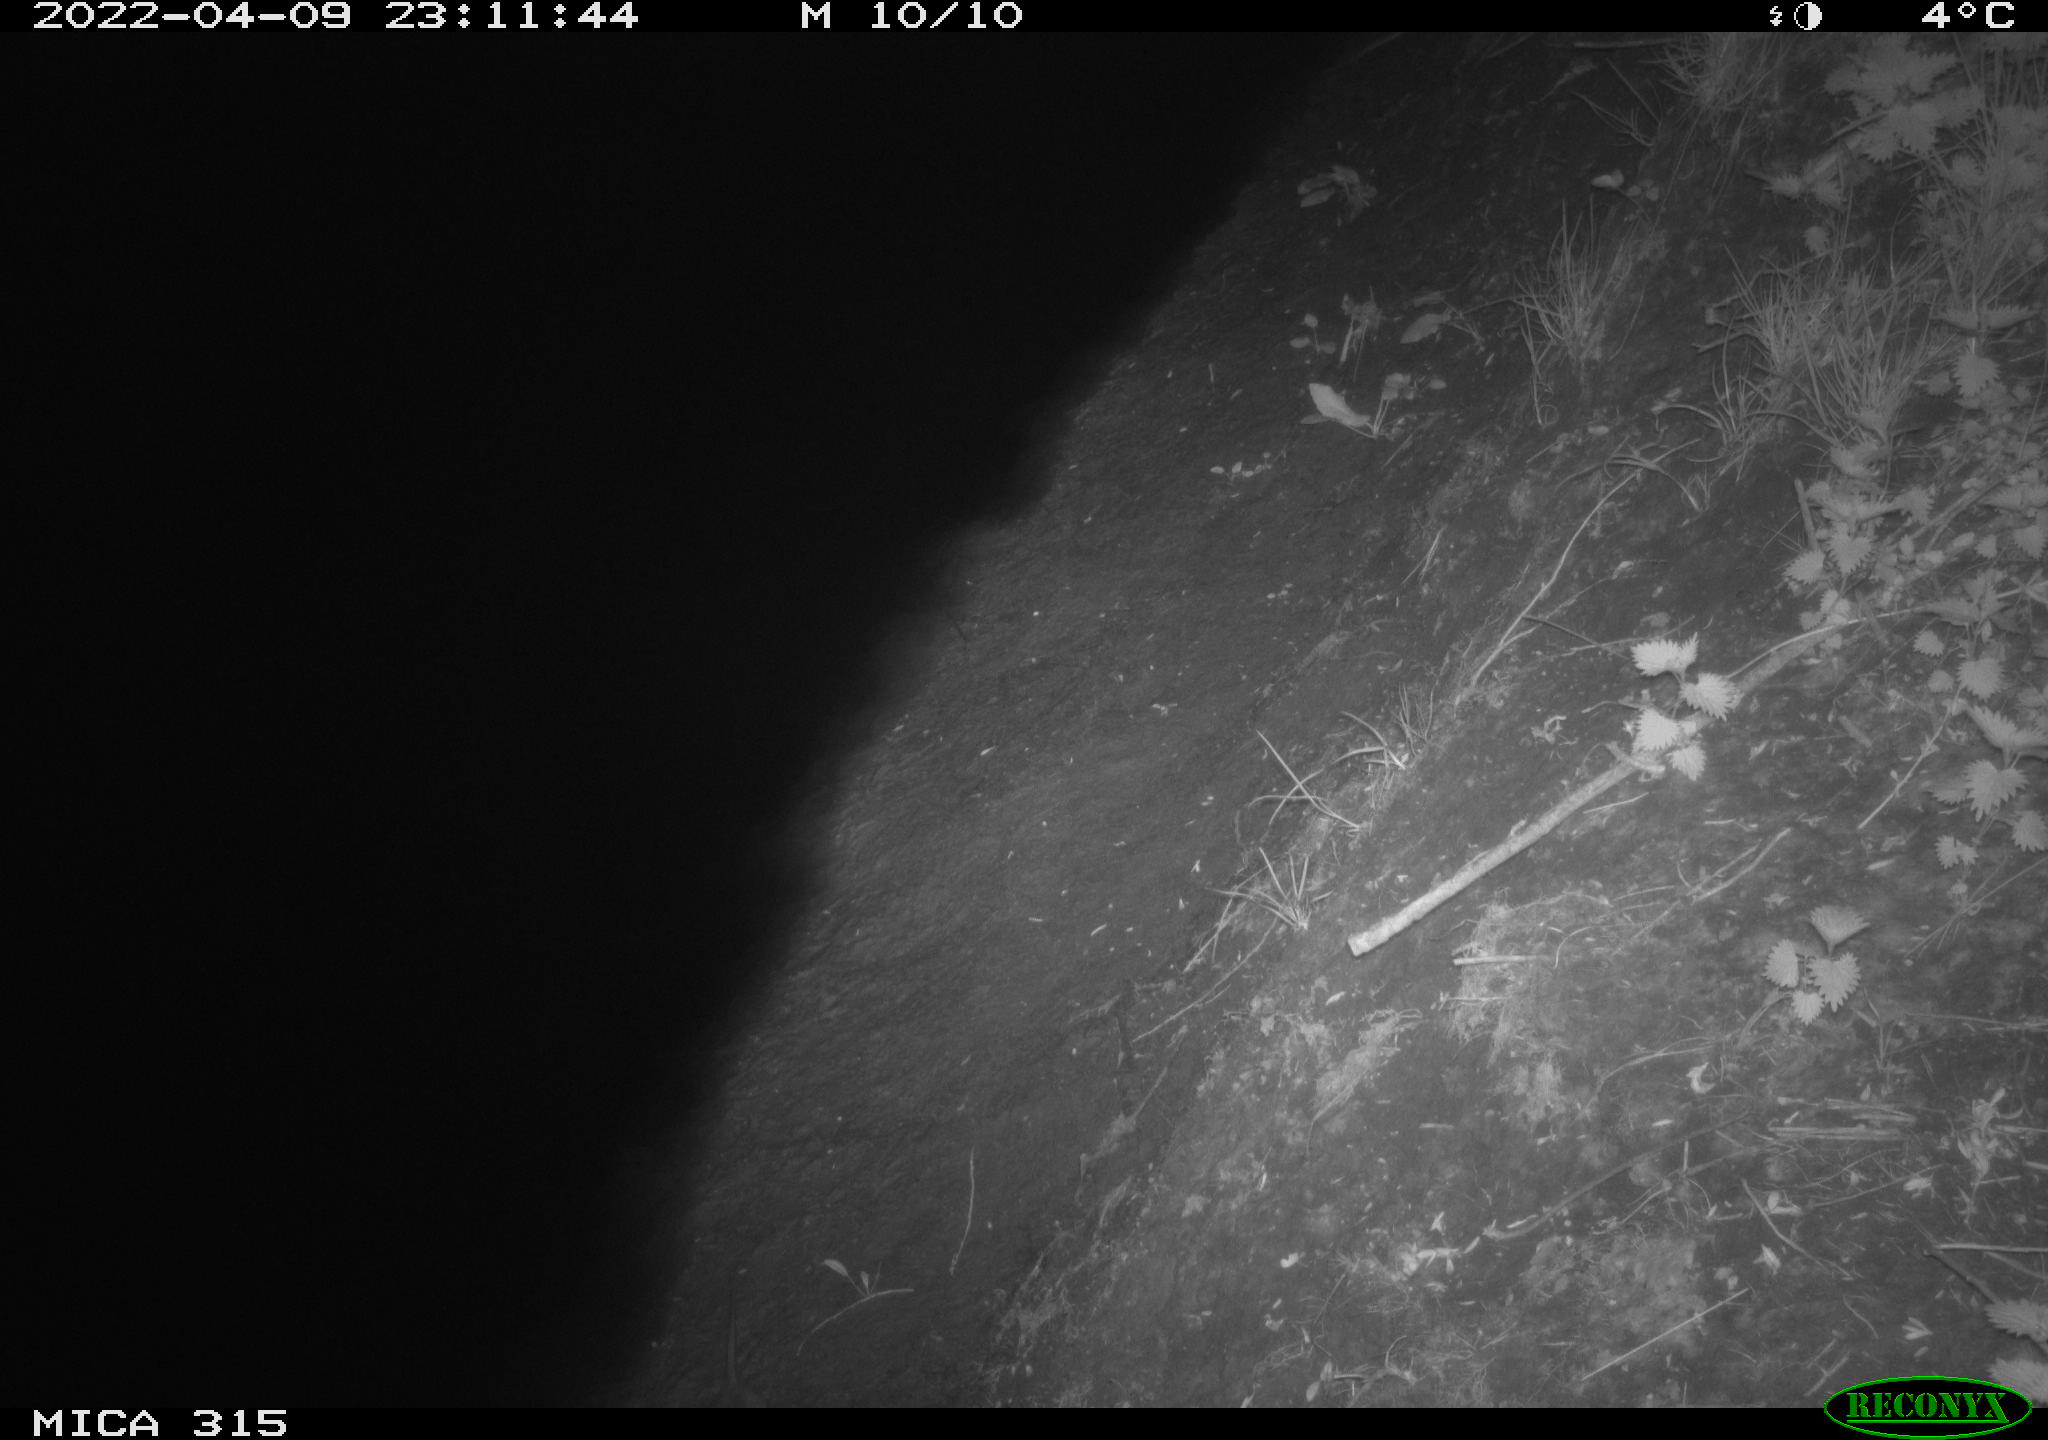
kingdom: Animalia
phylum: Chordata
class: Mammalia
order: Rodentia
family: Muridae
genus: Rattus
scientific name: Rattus norvegicus
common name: Brown rat
